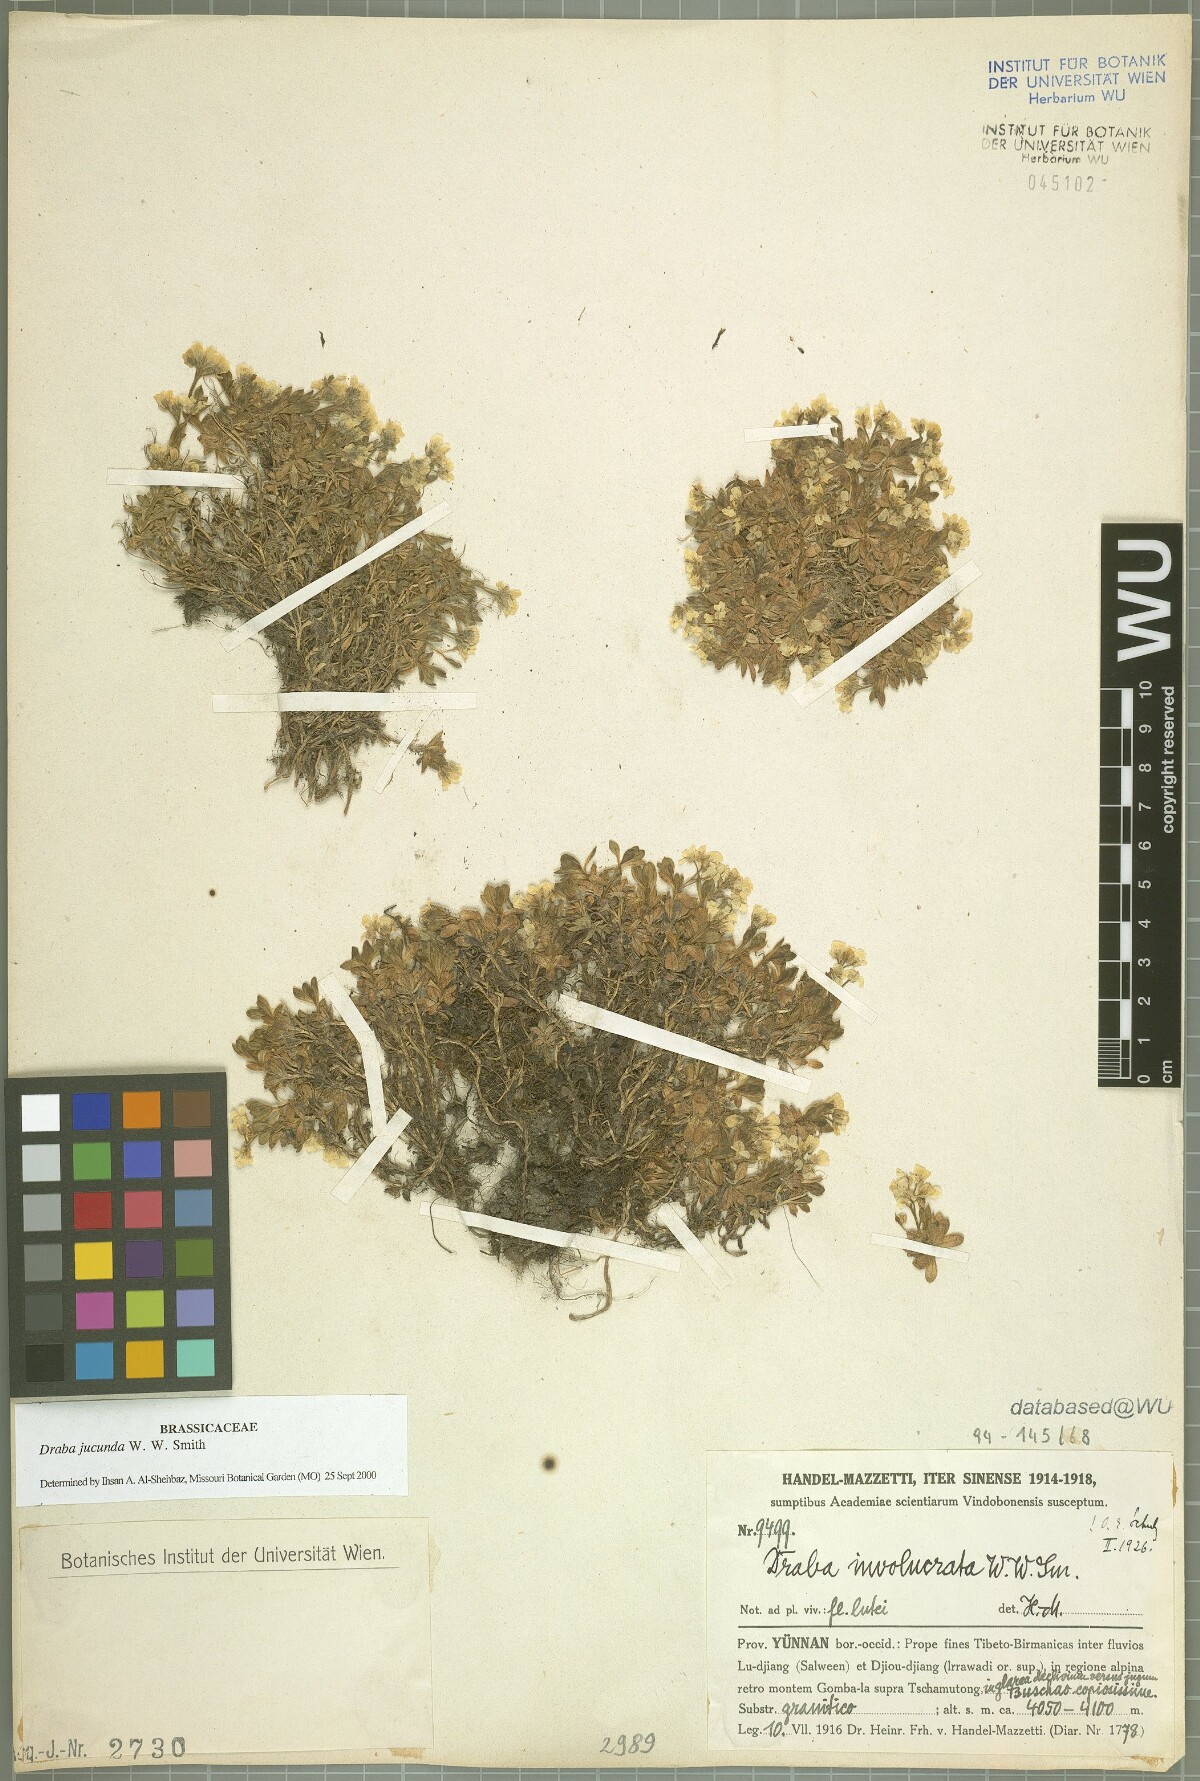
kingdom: Plantae
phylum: Tracheophyta
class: Magnoliopsida
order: Brassicales
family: Brassicaceae
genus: Draba
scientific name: Draba jucunda
